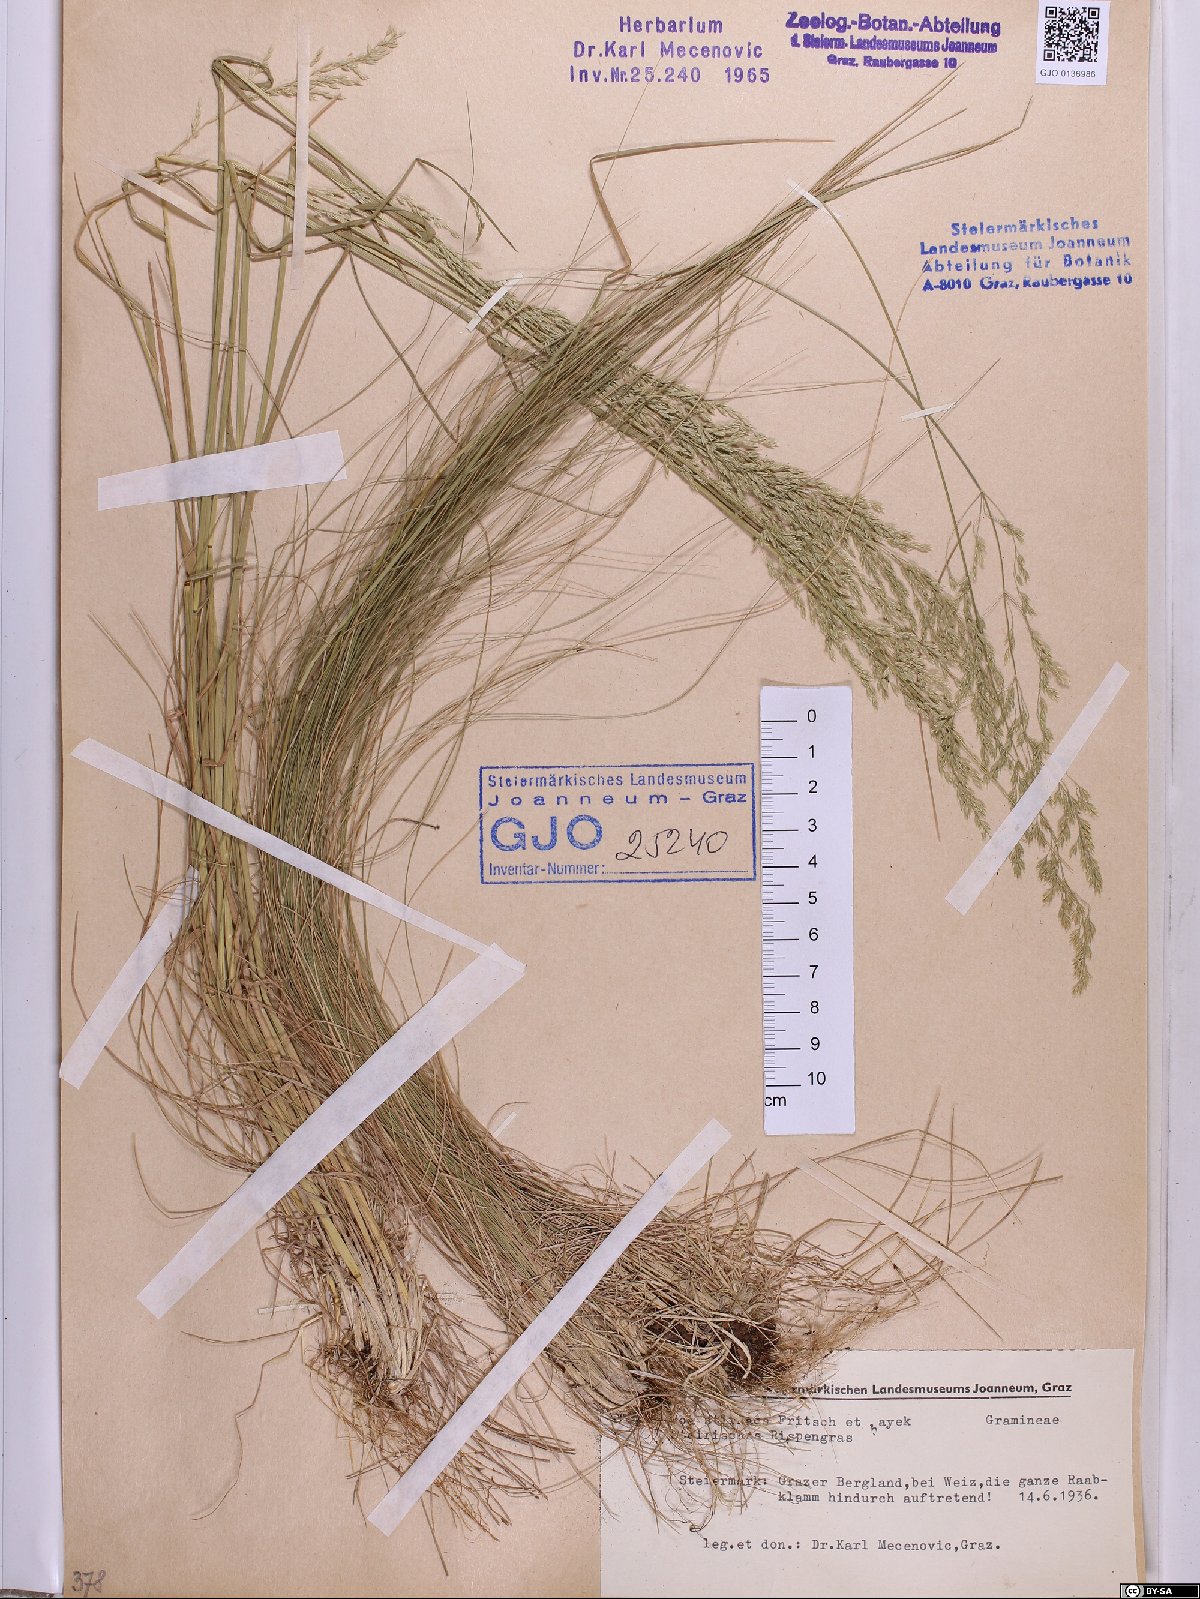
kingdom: Plantae
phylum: Tracheophyta
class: Liliopsida
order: Poales
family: Poaceae
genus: Poa
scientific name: Poa stiriaca
